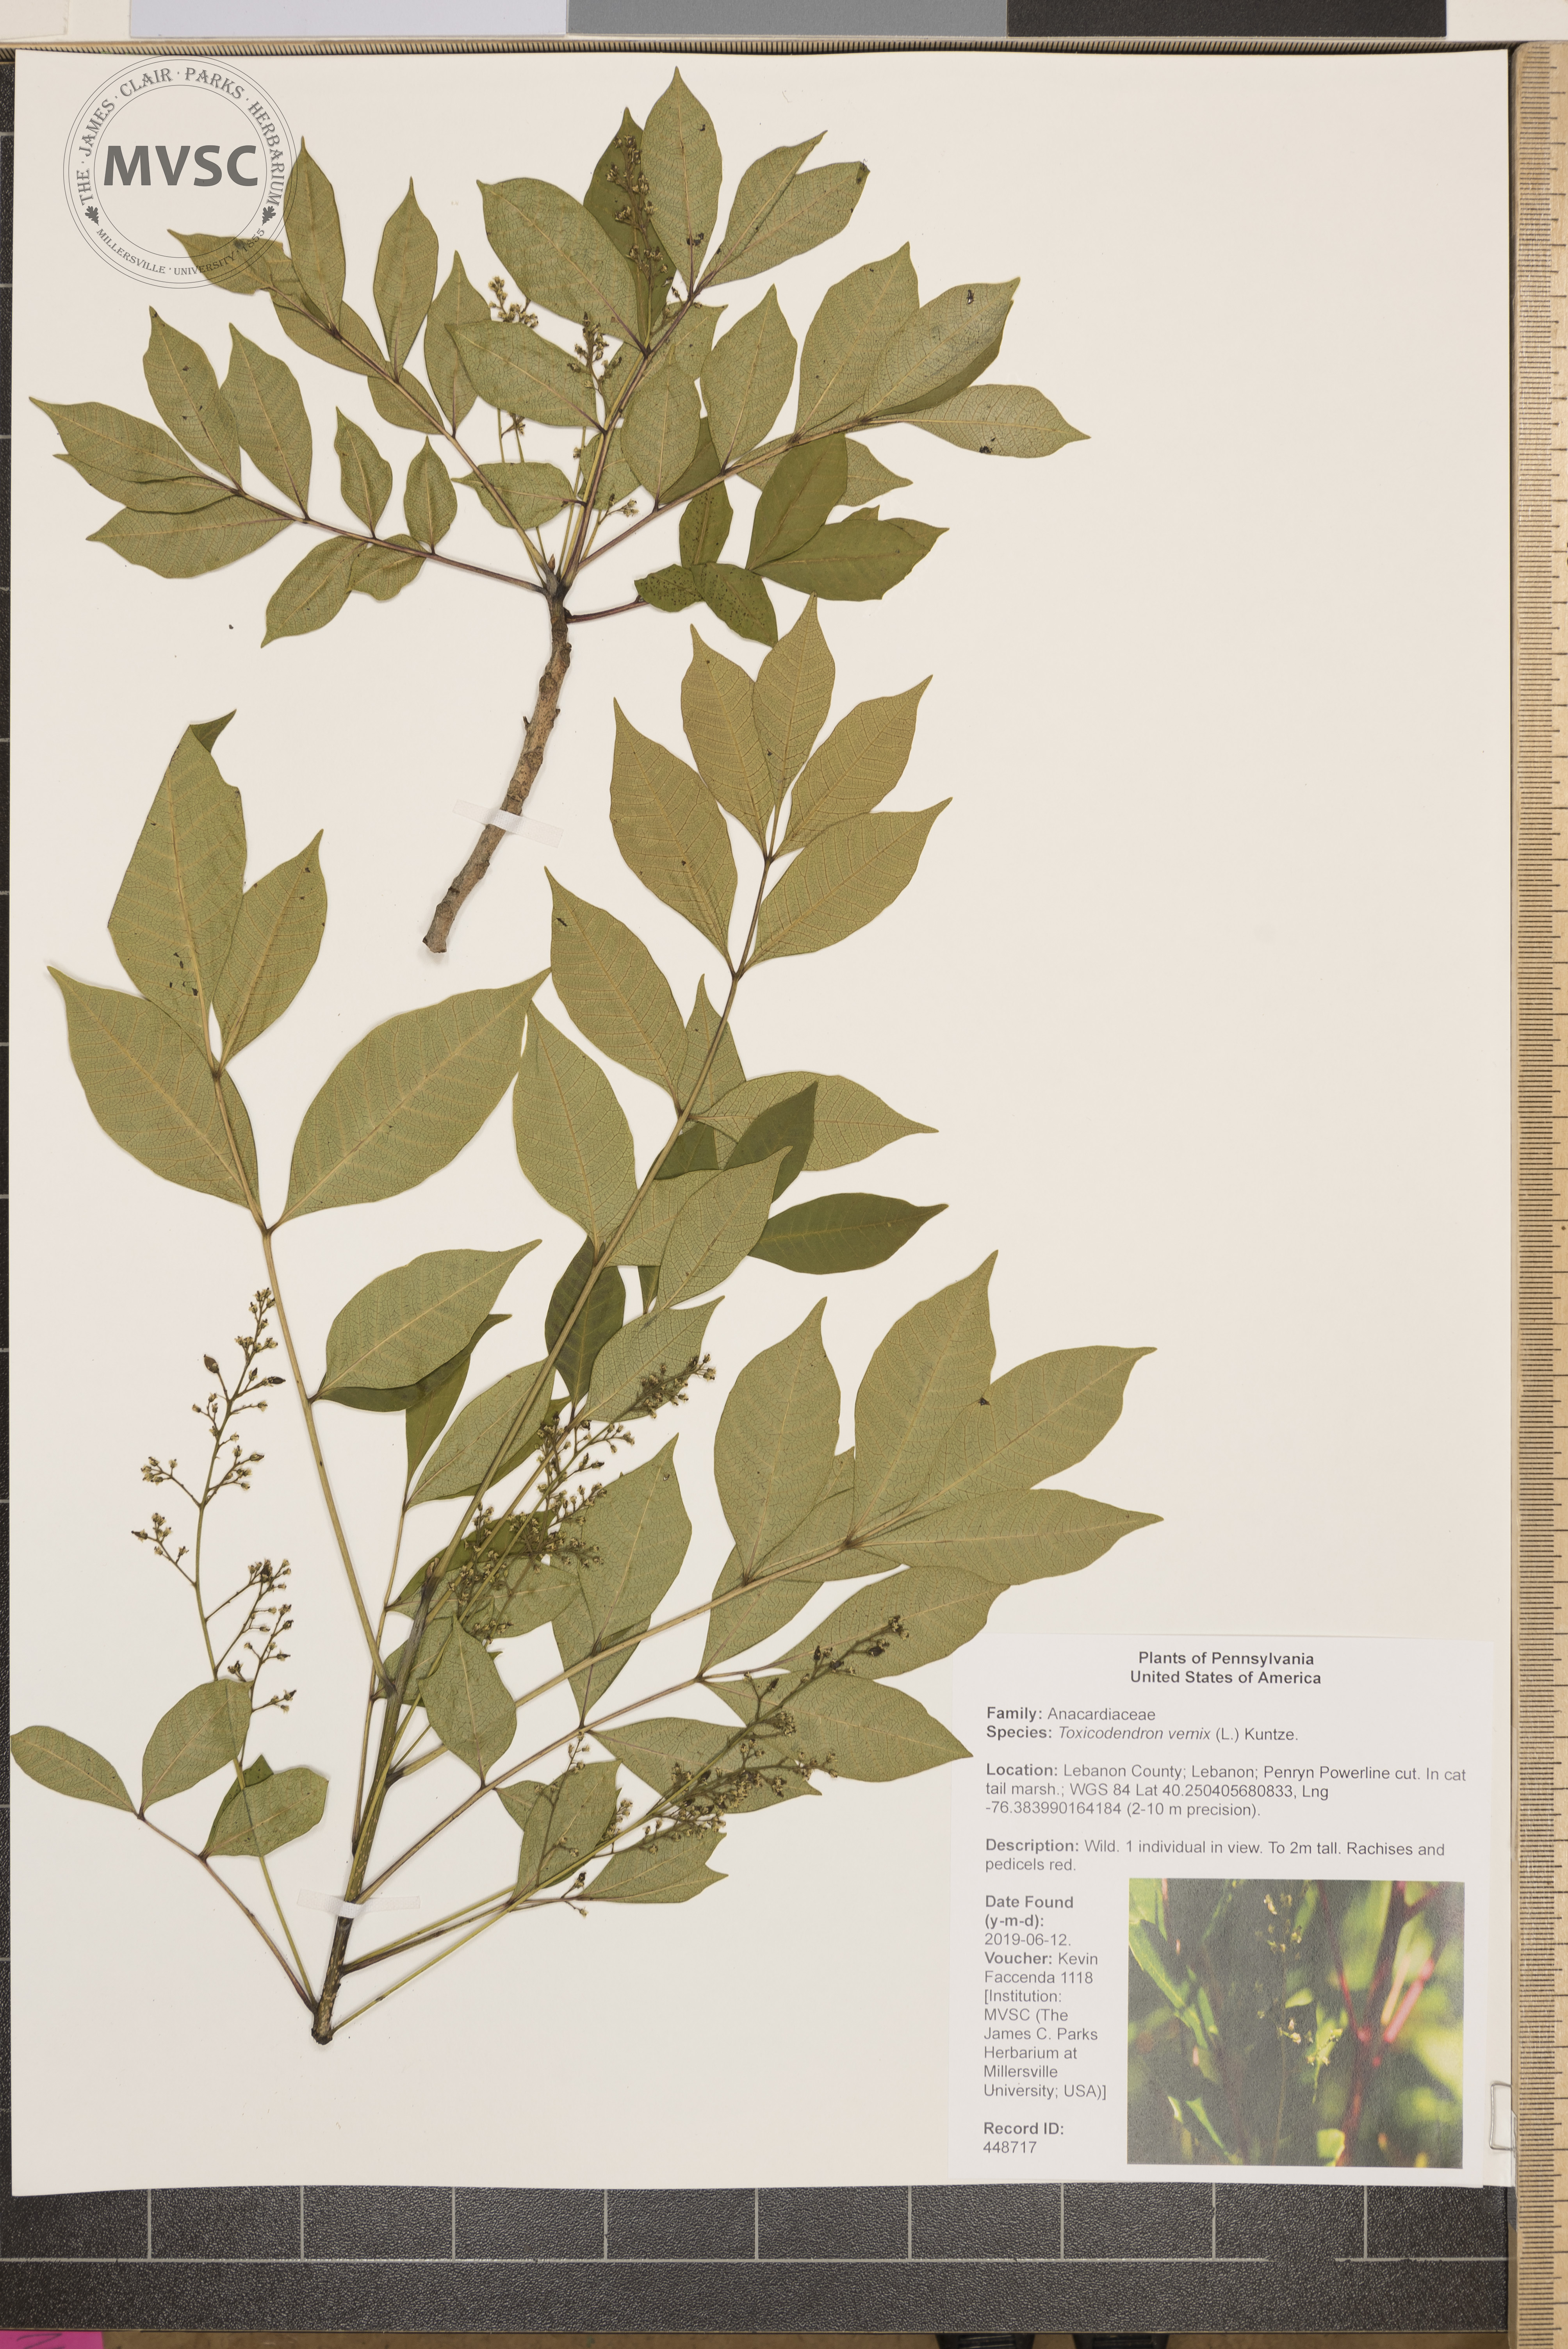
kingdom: Plantae
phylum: Tracheophyta
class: Magnoliopsida
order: Sapindales
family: Anacardiaceae
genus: Toxicodendron
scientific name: Toxicodendron vernix
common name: Poison sumac
